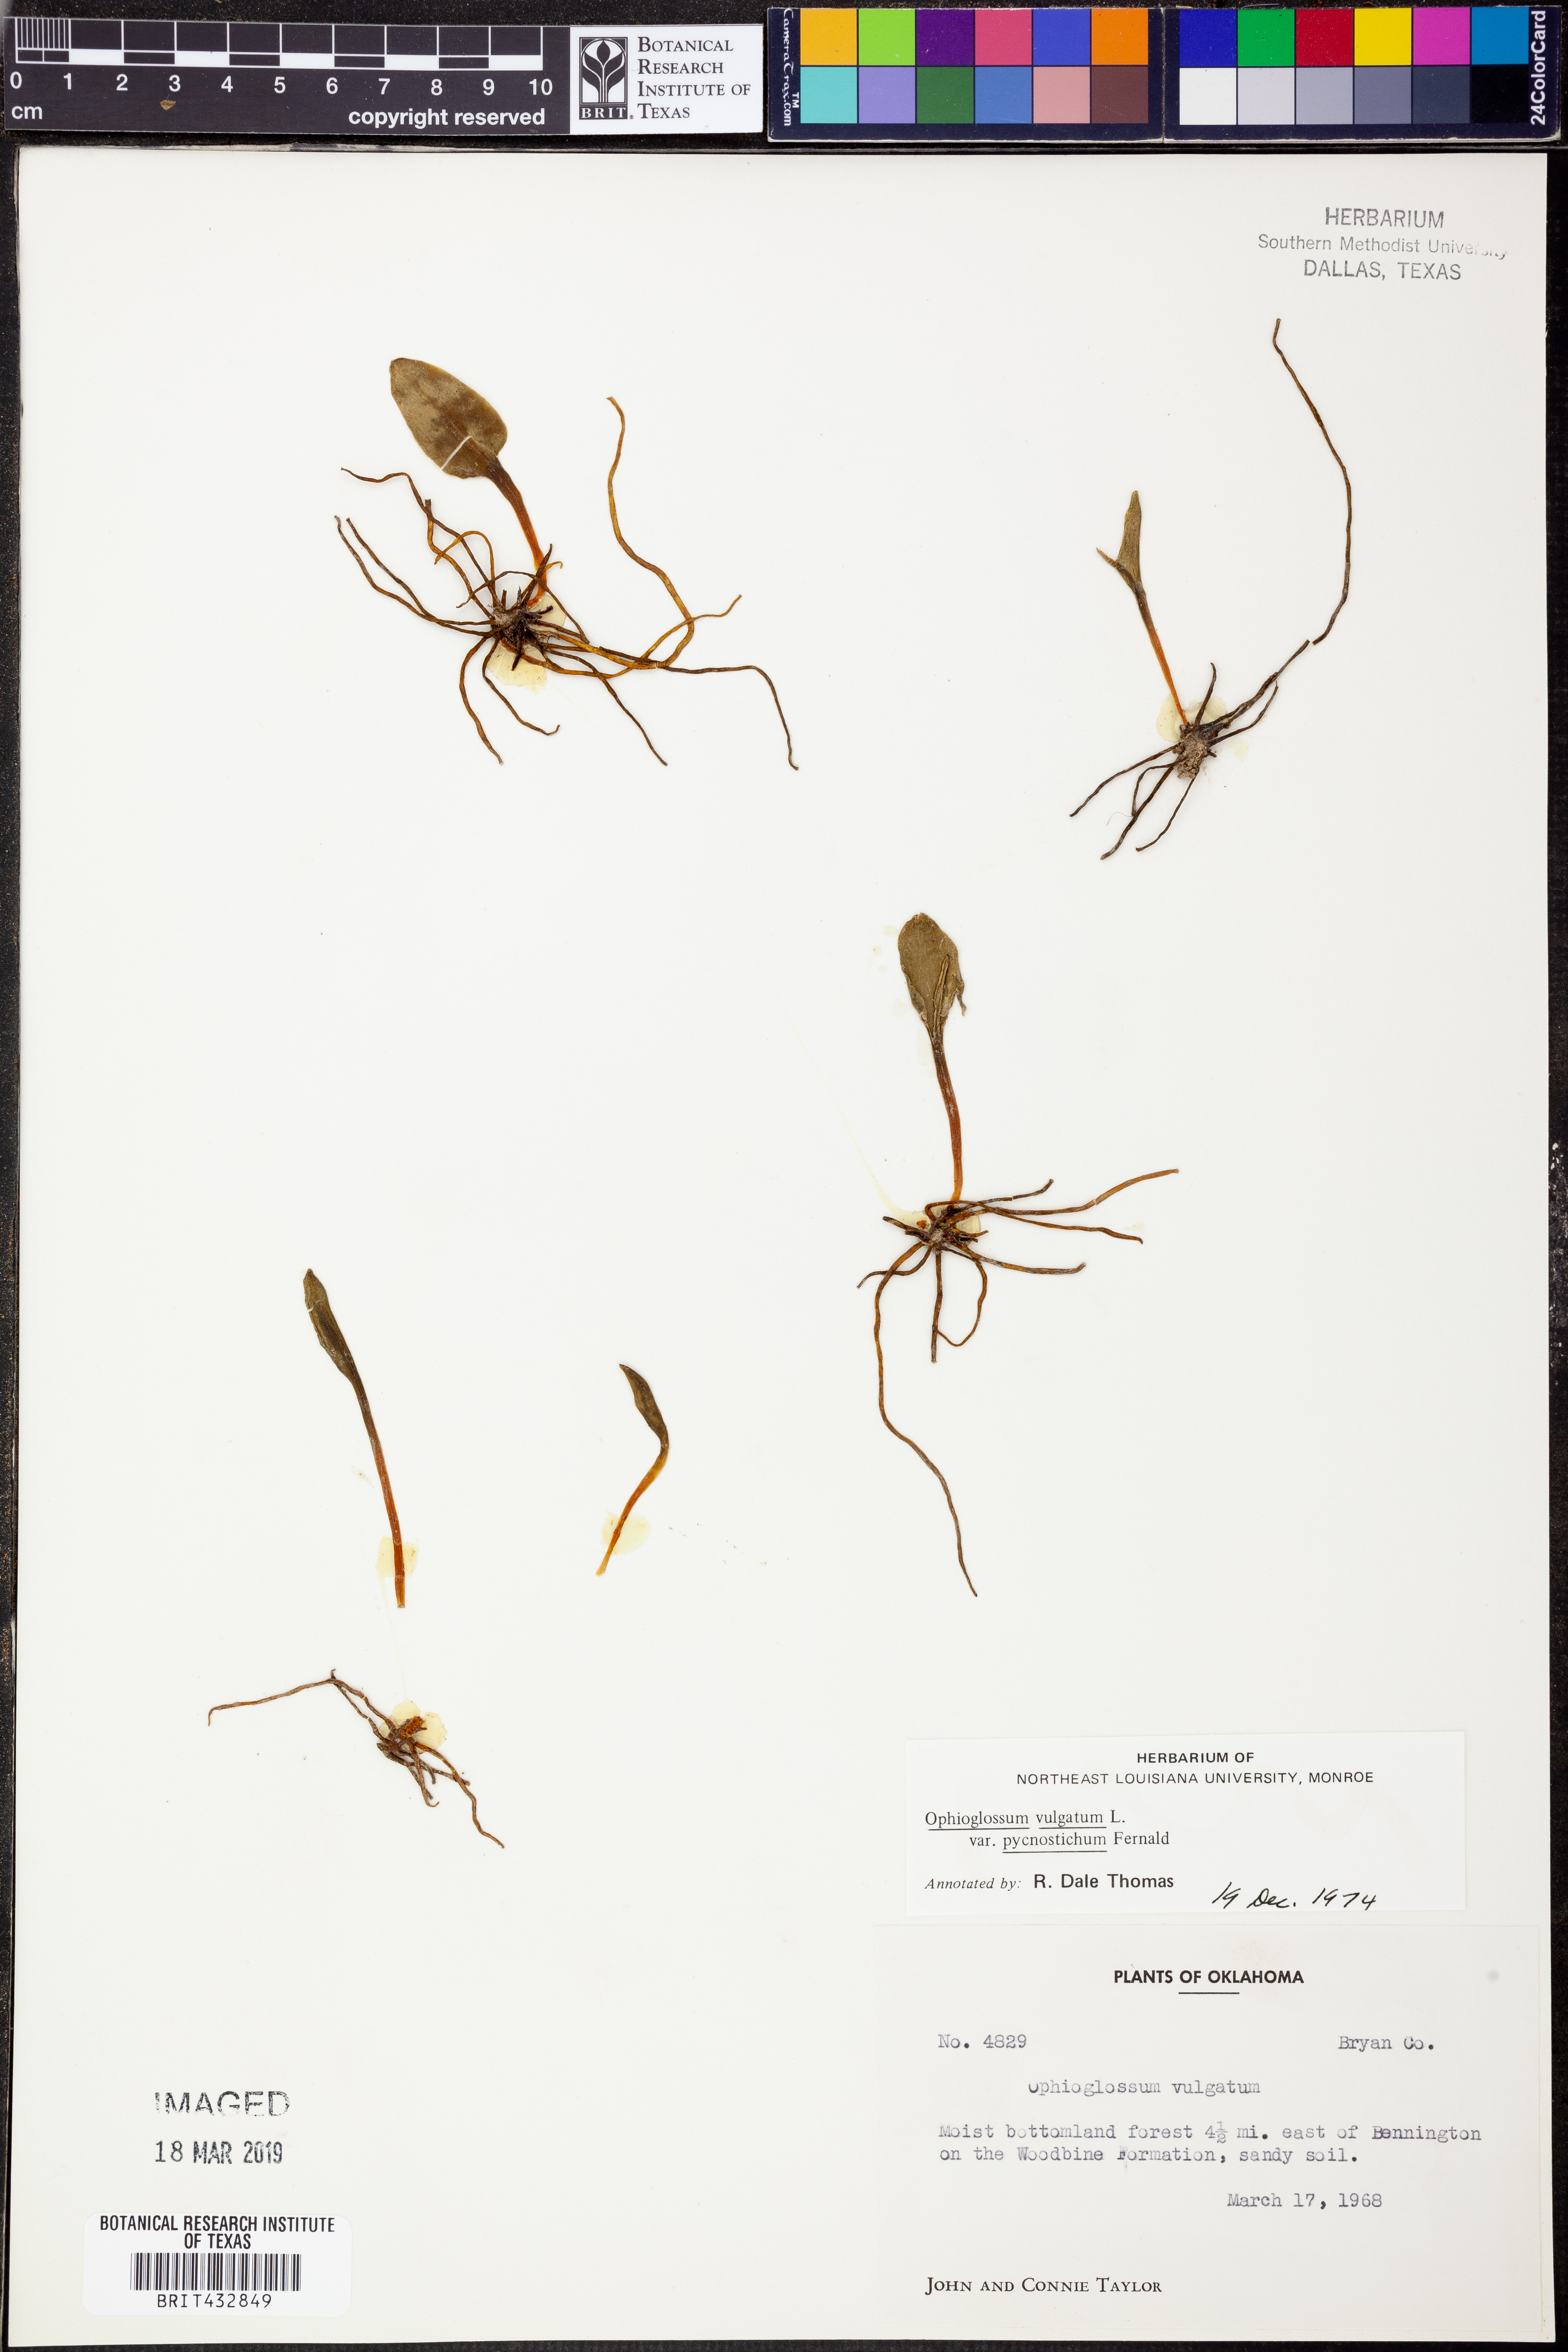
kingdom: Plantae
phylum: Tracheophyta
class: Polypodiopsida
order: Ophioglossales
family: Ophioglossaceae
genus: Ophioglossum
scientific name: Ophioglossum vulgatum
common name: Adder's-tongue
